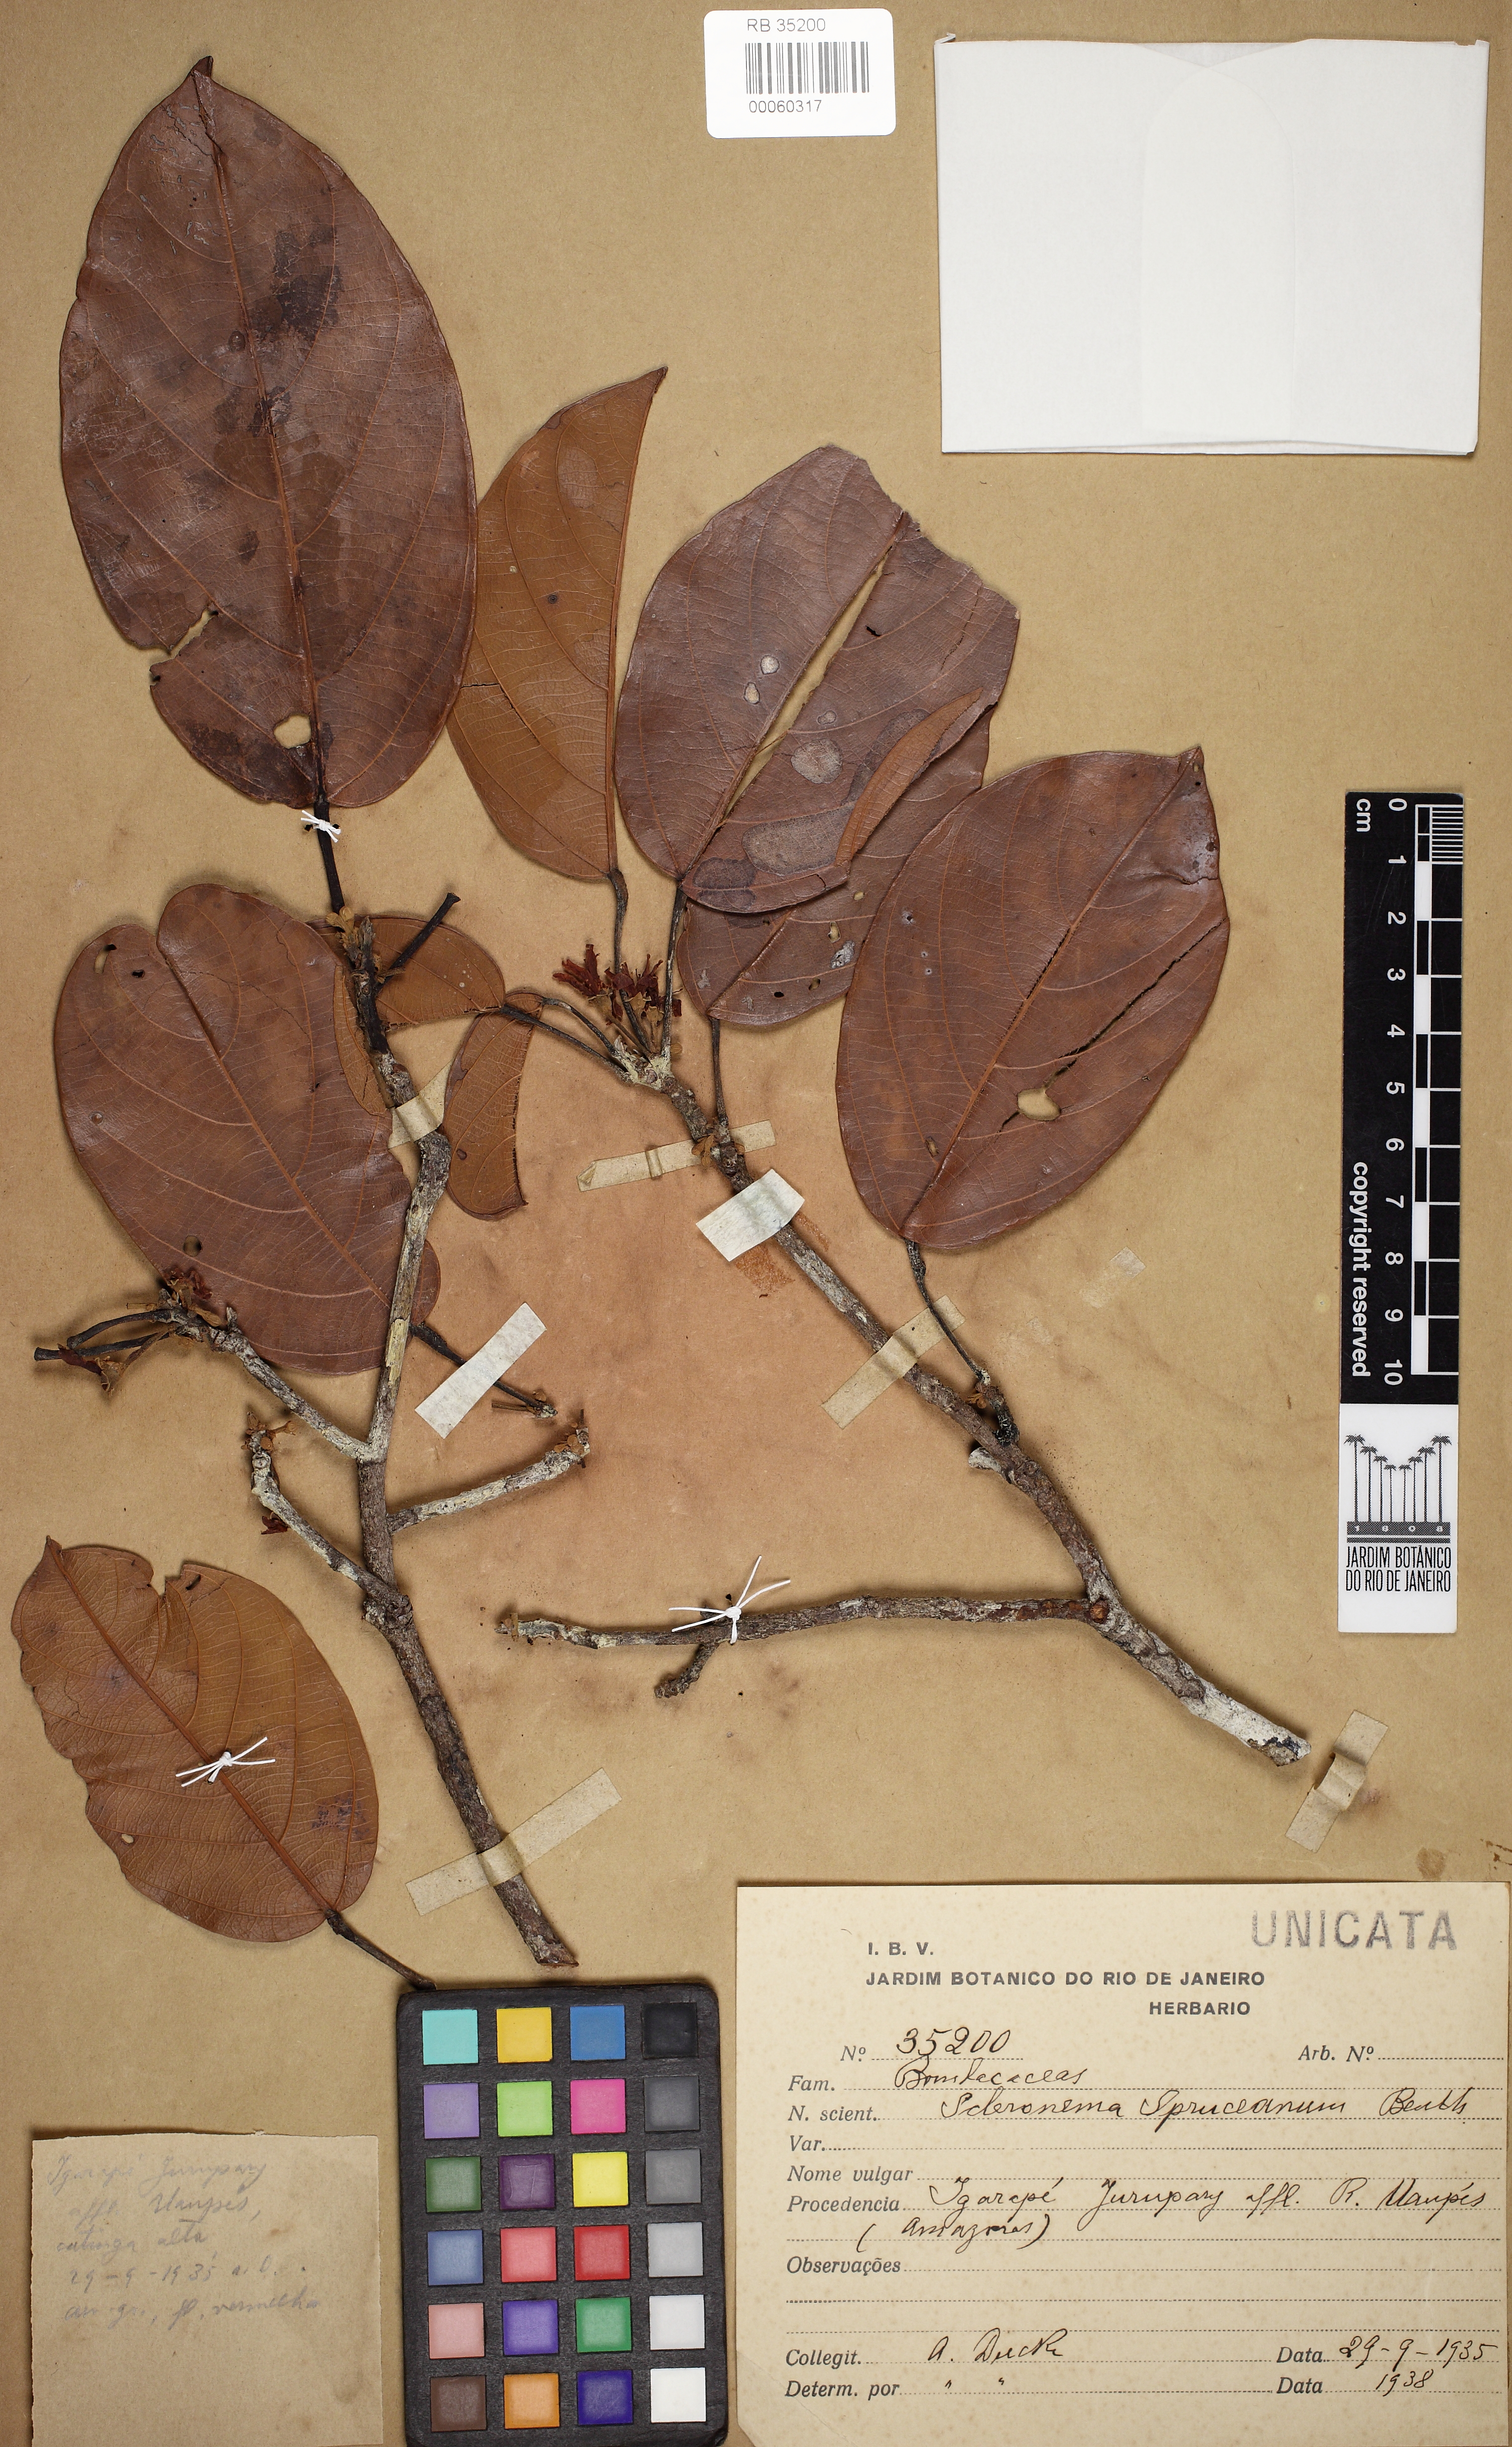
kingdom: Plantae
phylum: Tracheophyta
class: Magnoliopsida
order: Malvales
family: Malvaceae
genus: Scleronema
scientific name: Scleronema spruceana
